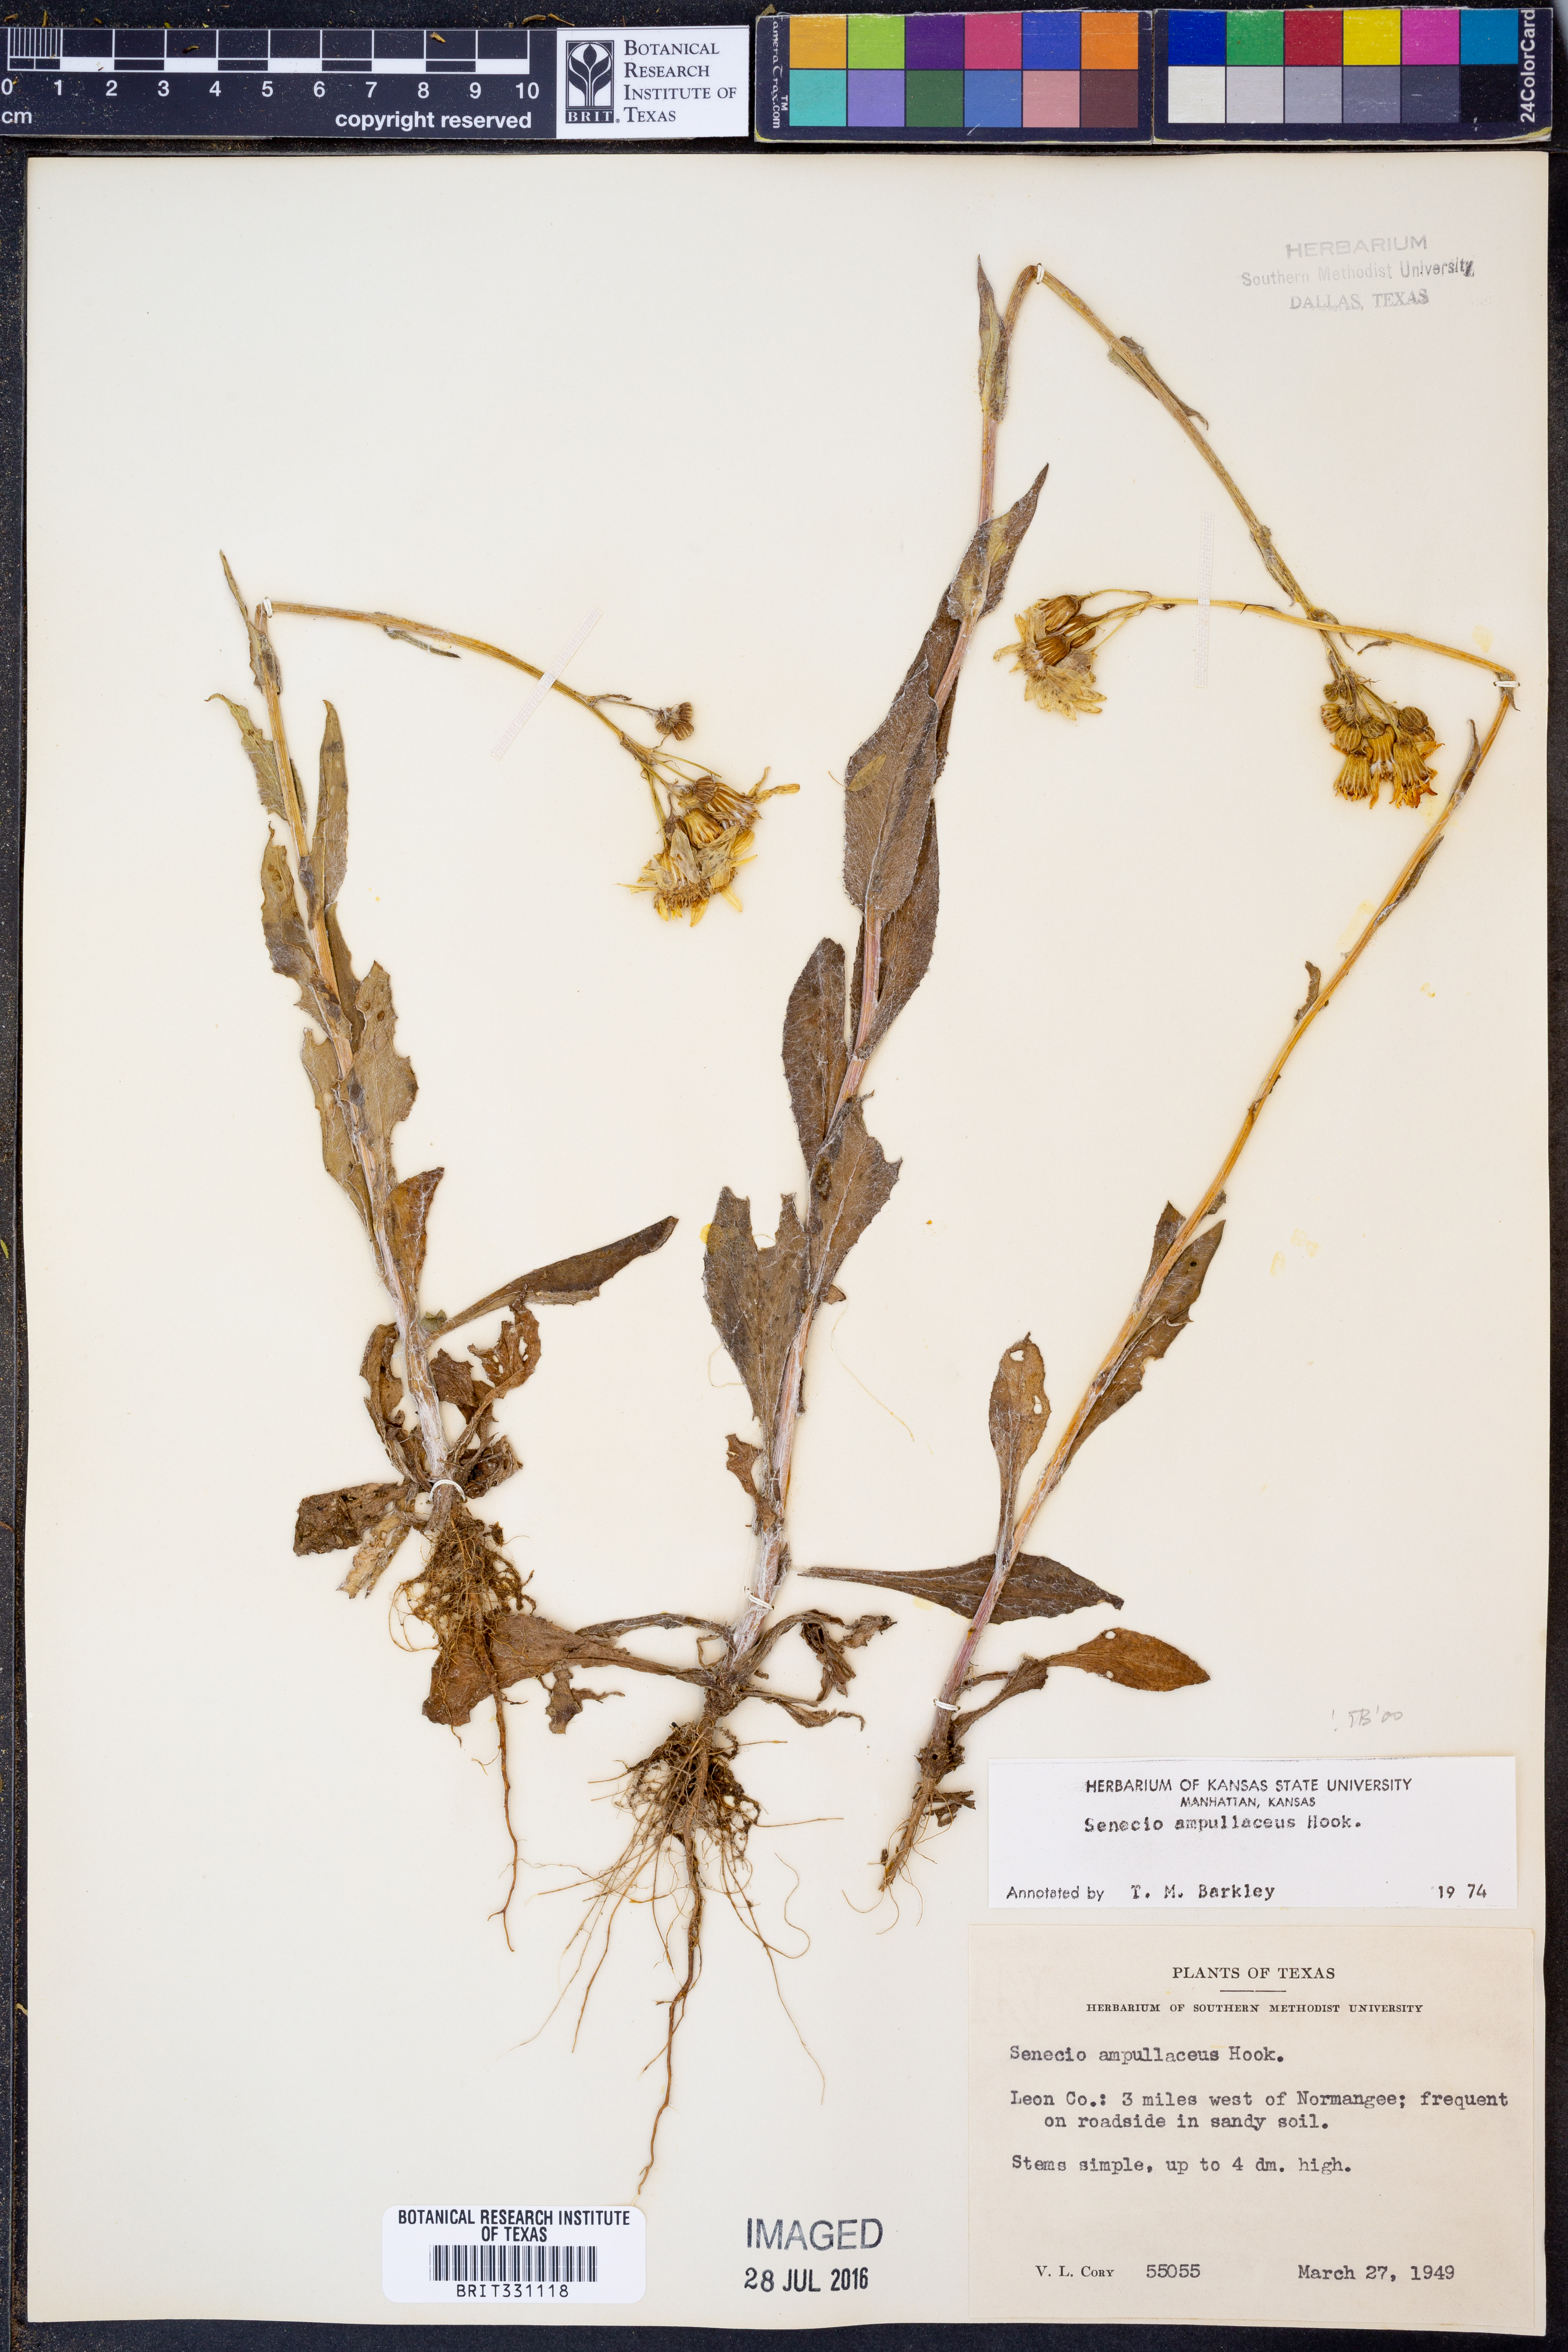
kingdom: Plantae
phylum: Tracheophyta
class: Magnoliopsida
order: Asterales
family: Asteraceae
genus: Senecio
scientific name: Senecio ampullaceus
